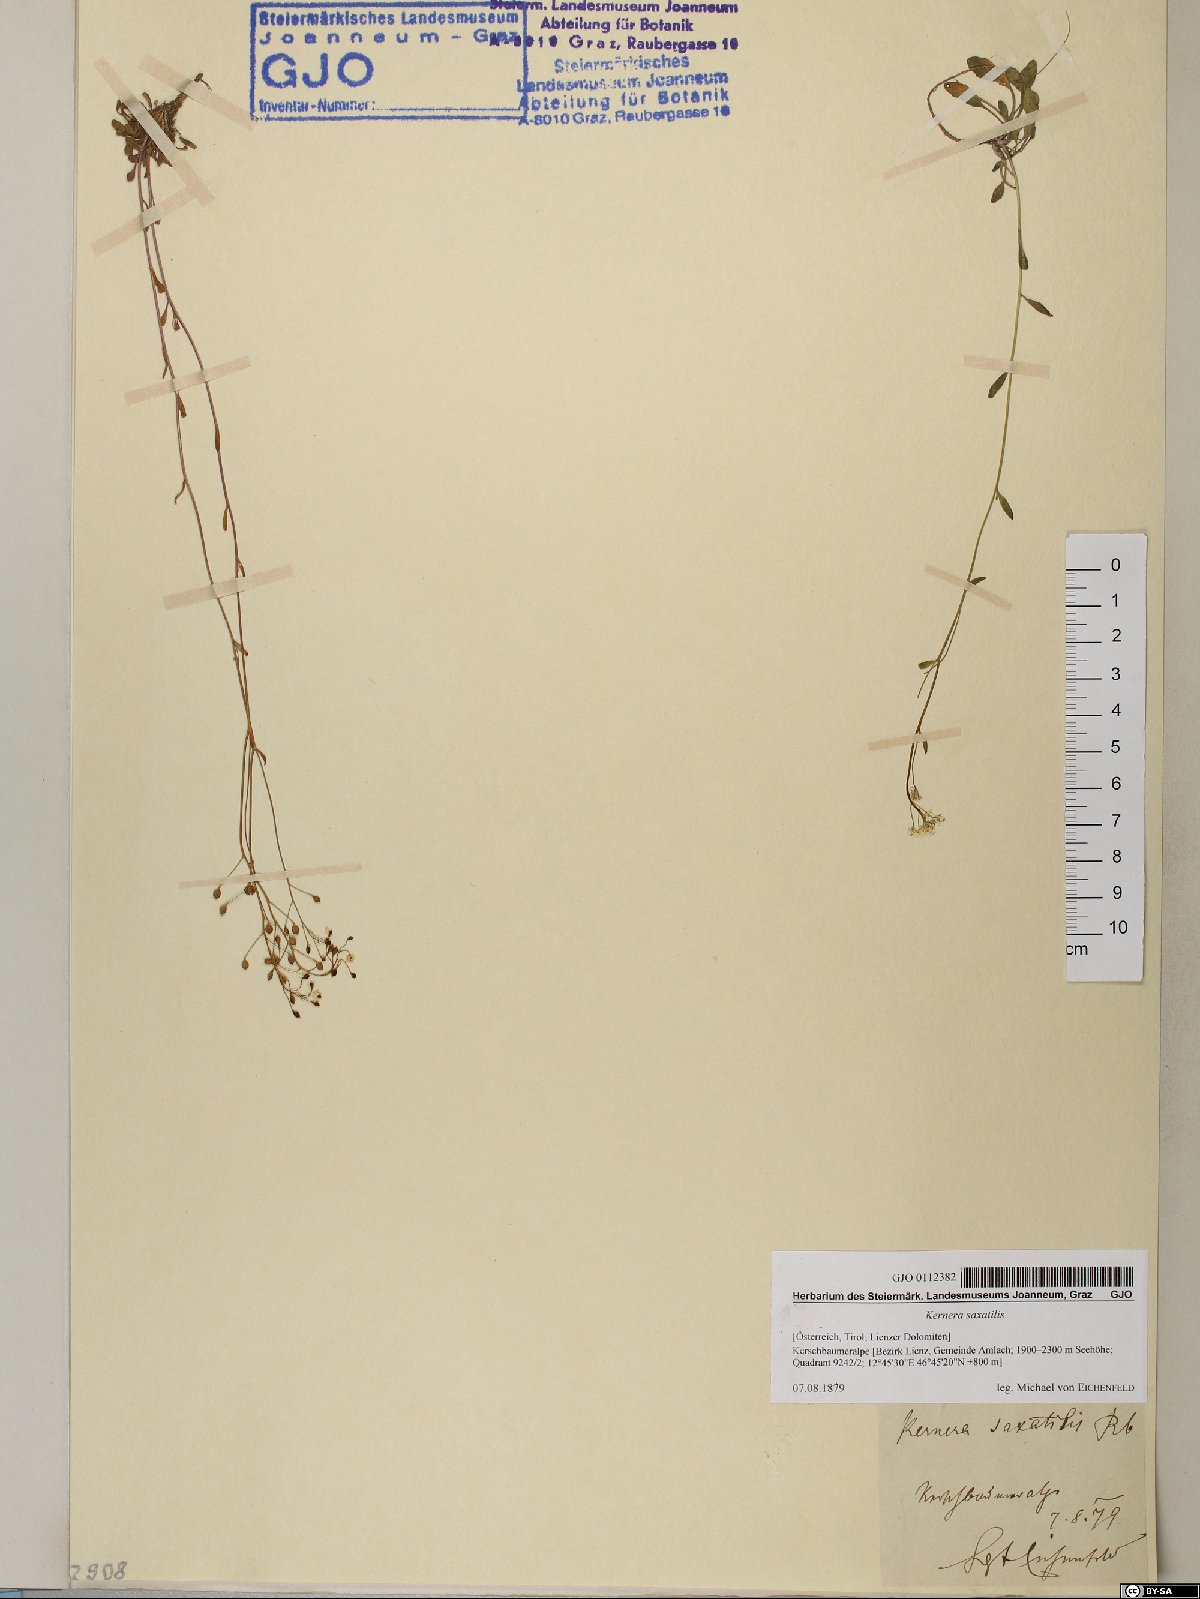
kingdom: Plantae
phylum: Tracheophyta
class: Magnoliopsida
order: Brassicales
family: Brassicaceae
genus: Kernera
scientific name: Kernera saxatilis
